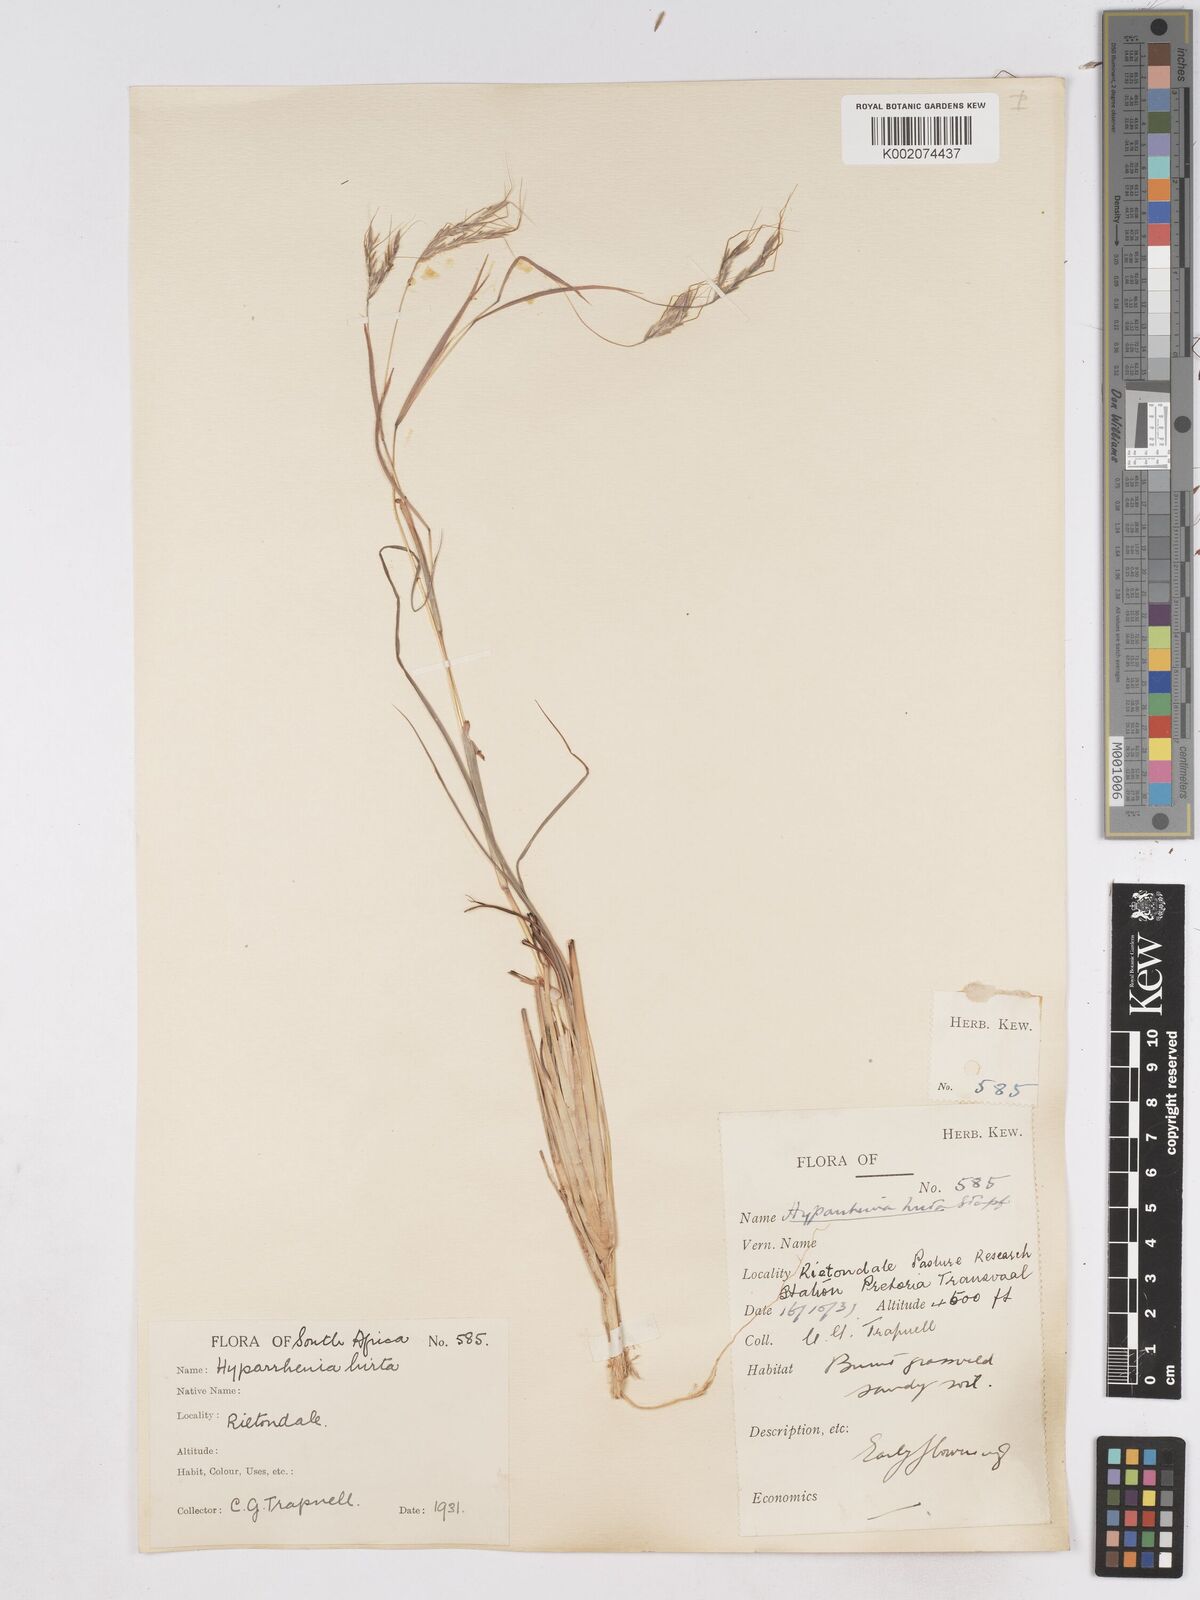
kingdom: Plantae
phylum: Tracheophyta
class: Liliopsida
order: Poales
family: Poaceae
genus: Hyparrhenia
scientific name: Hyparrhenia hirta
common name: Thatching grass
